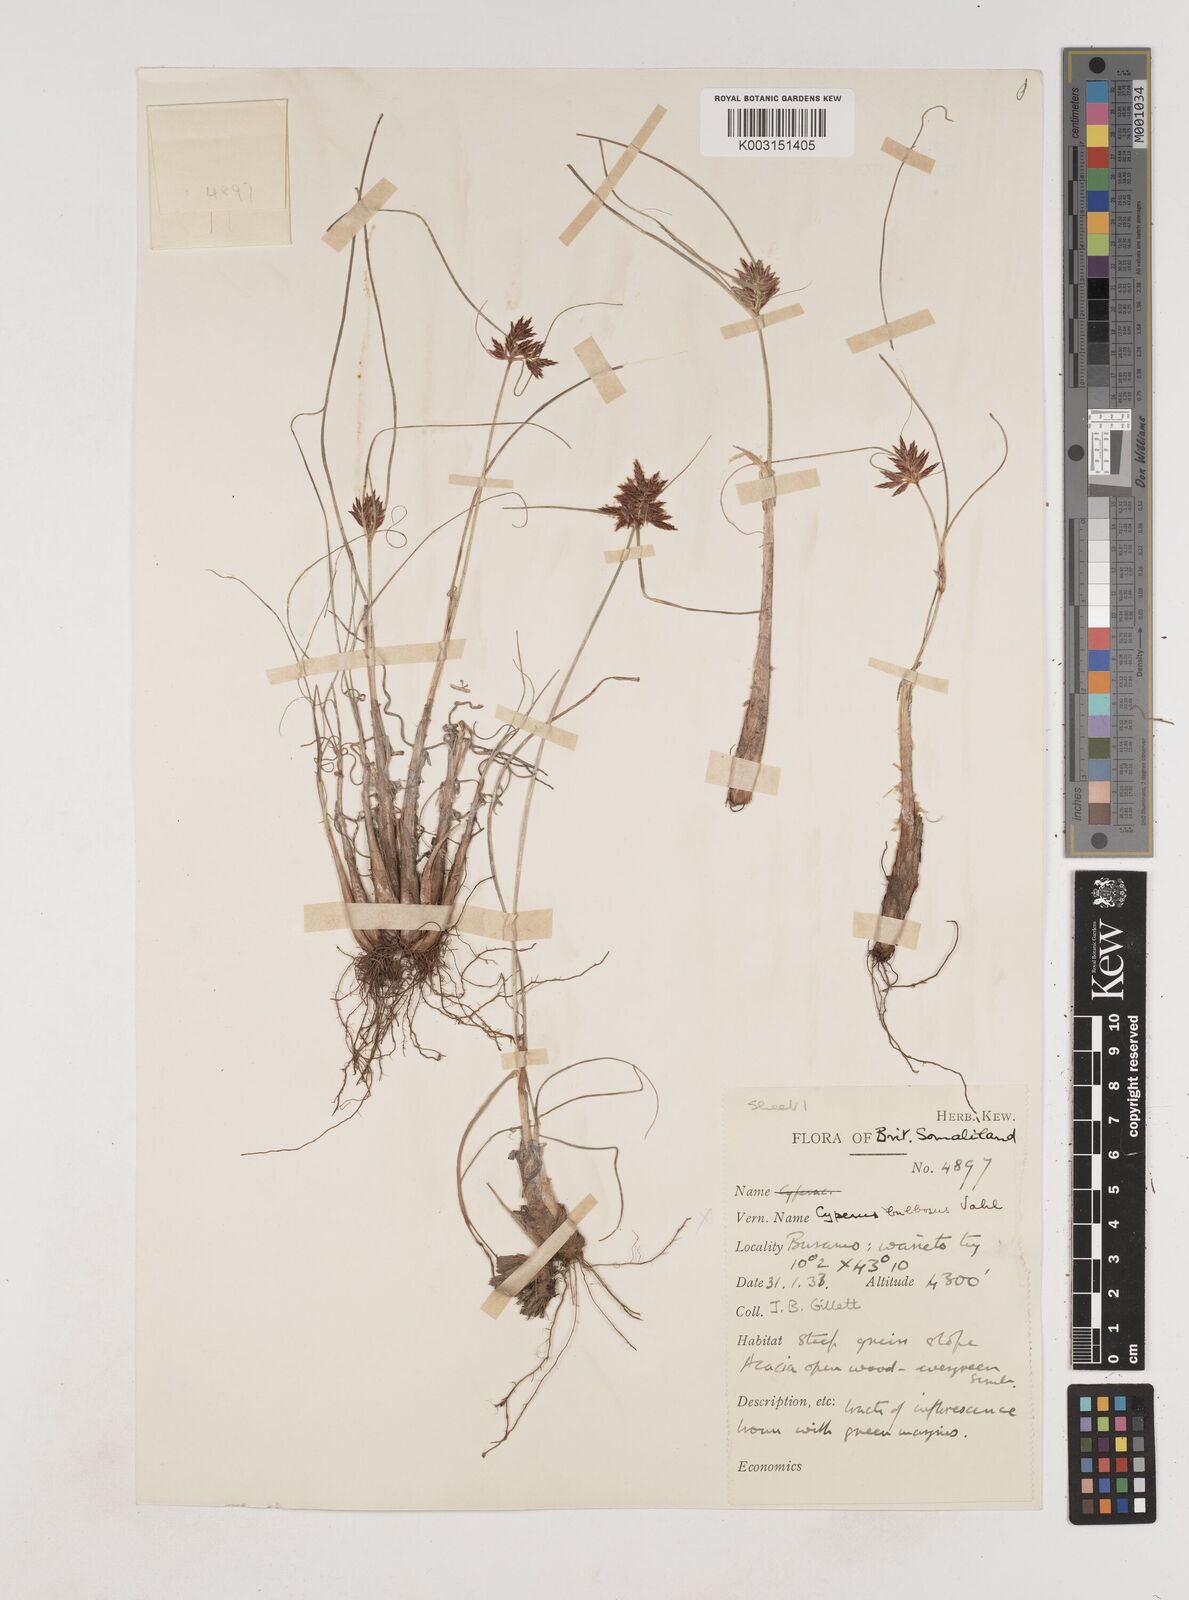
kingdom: Plantae
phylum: Tracheophyta
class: Liliopsida
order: Poales
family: Cyperaceae
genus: Cyperus
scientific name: Cyperus amauropus
